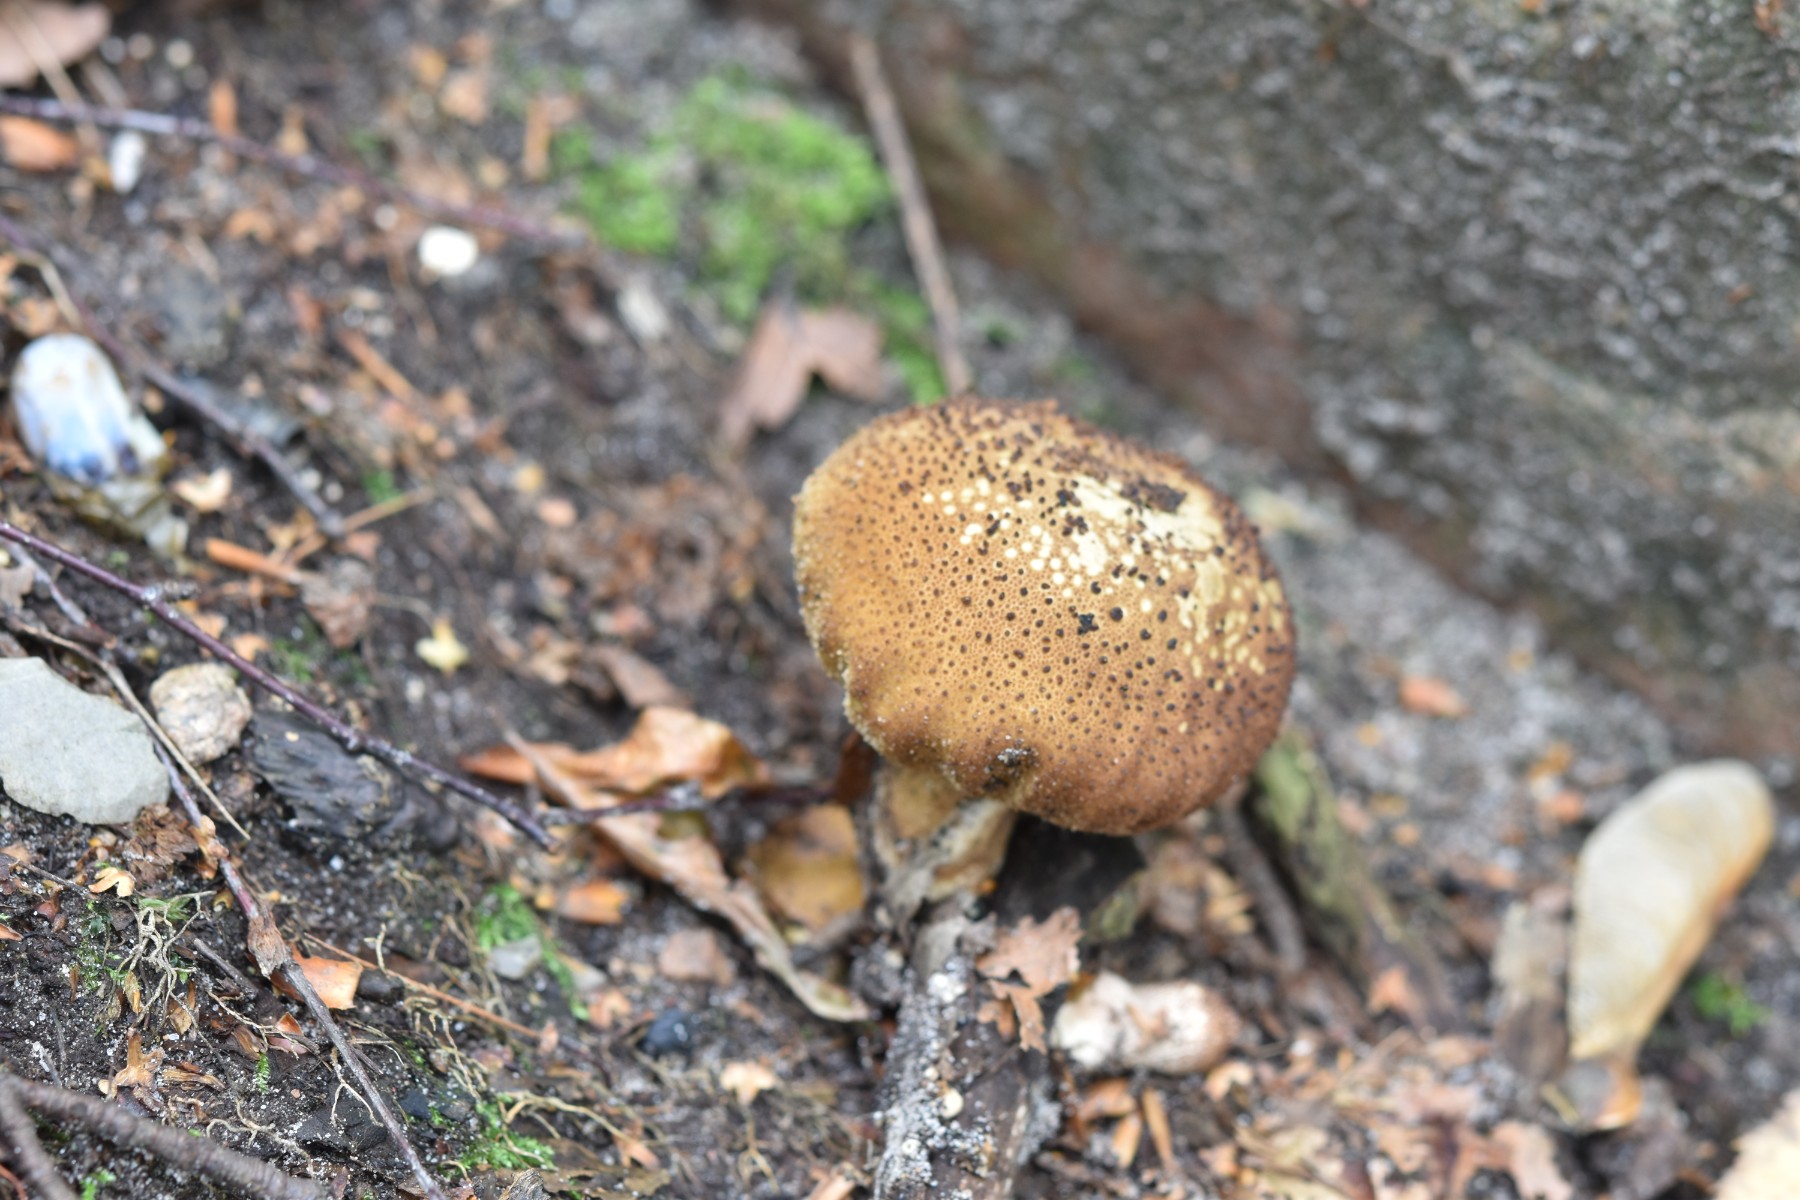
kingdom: Fungi
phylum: Basidiomycota
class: Agaricomycetes
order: Agaricales
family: Lycoperdaceae
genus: Lycoperdon
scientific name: Lycoperdon nigrescens
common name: sortagtig støvbold
